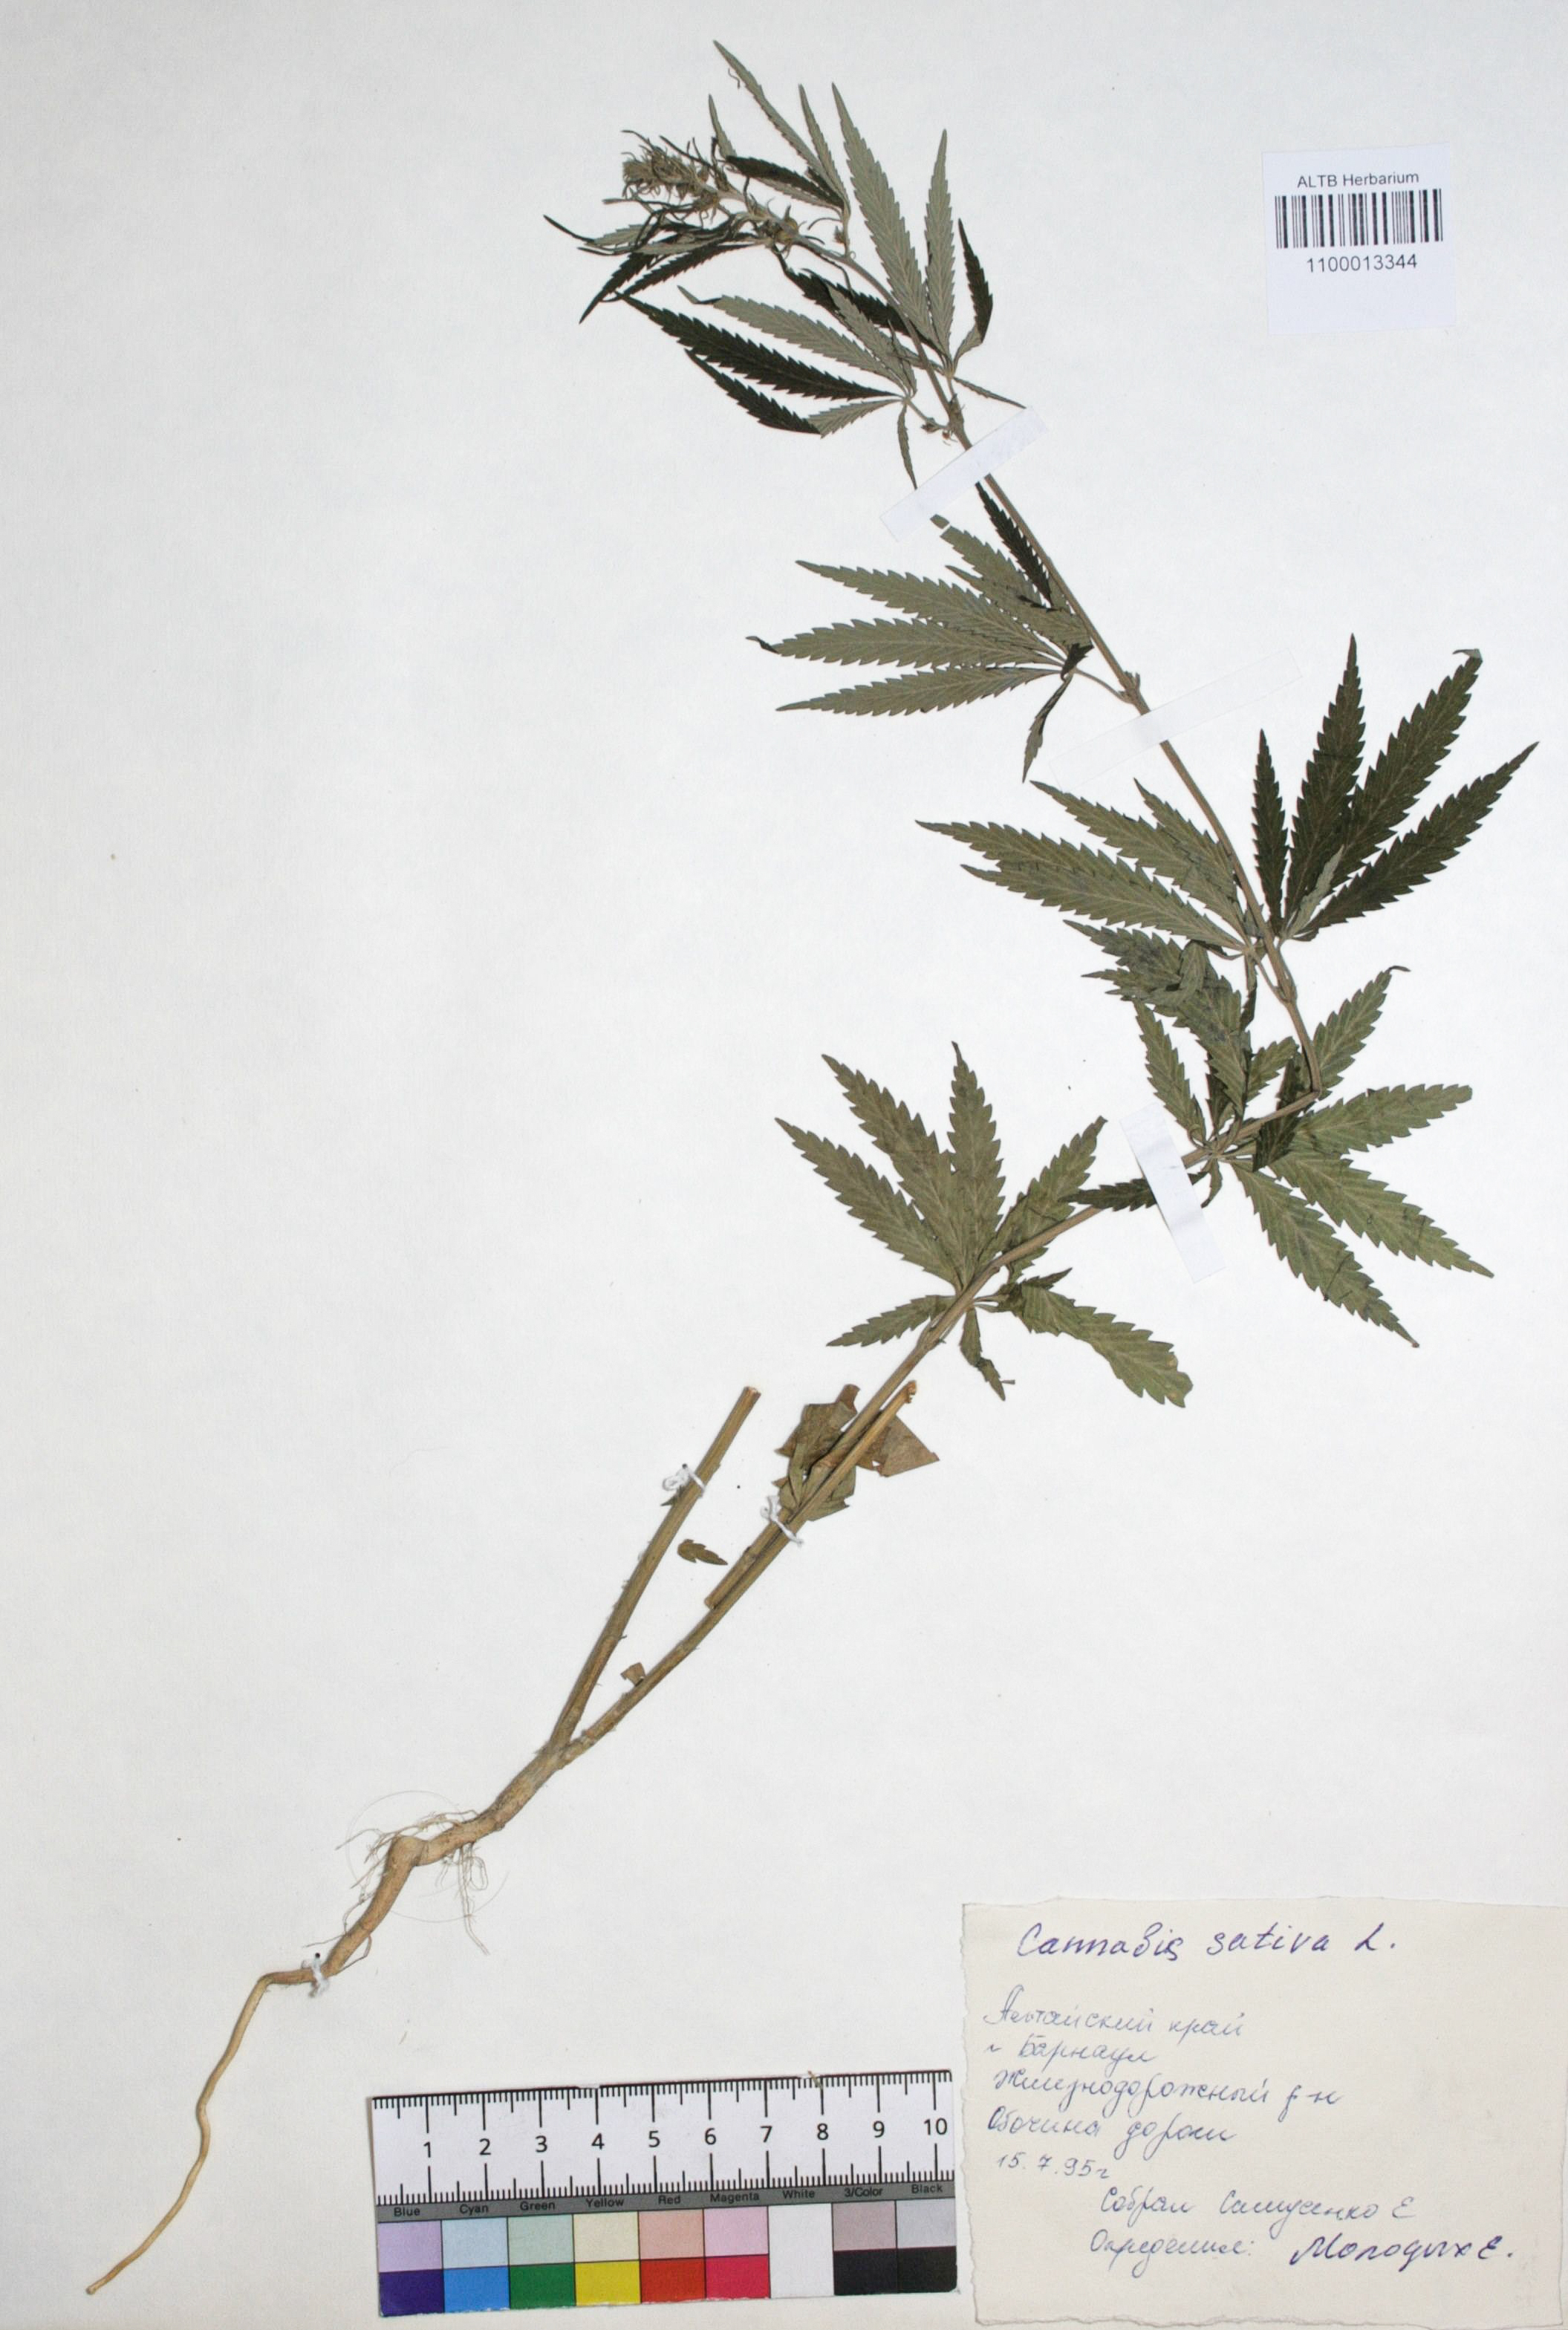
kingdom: Plantae
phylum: Tracheophyta
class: Magnoliopsida
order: Rosales
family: Cannabaceae
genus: Cannabis
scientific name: Cannabis sativa
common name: Hemp
